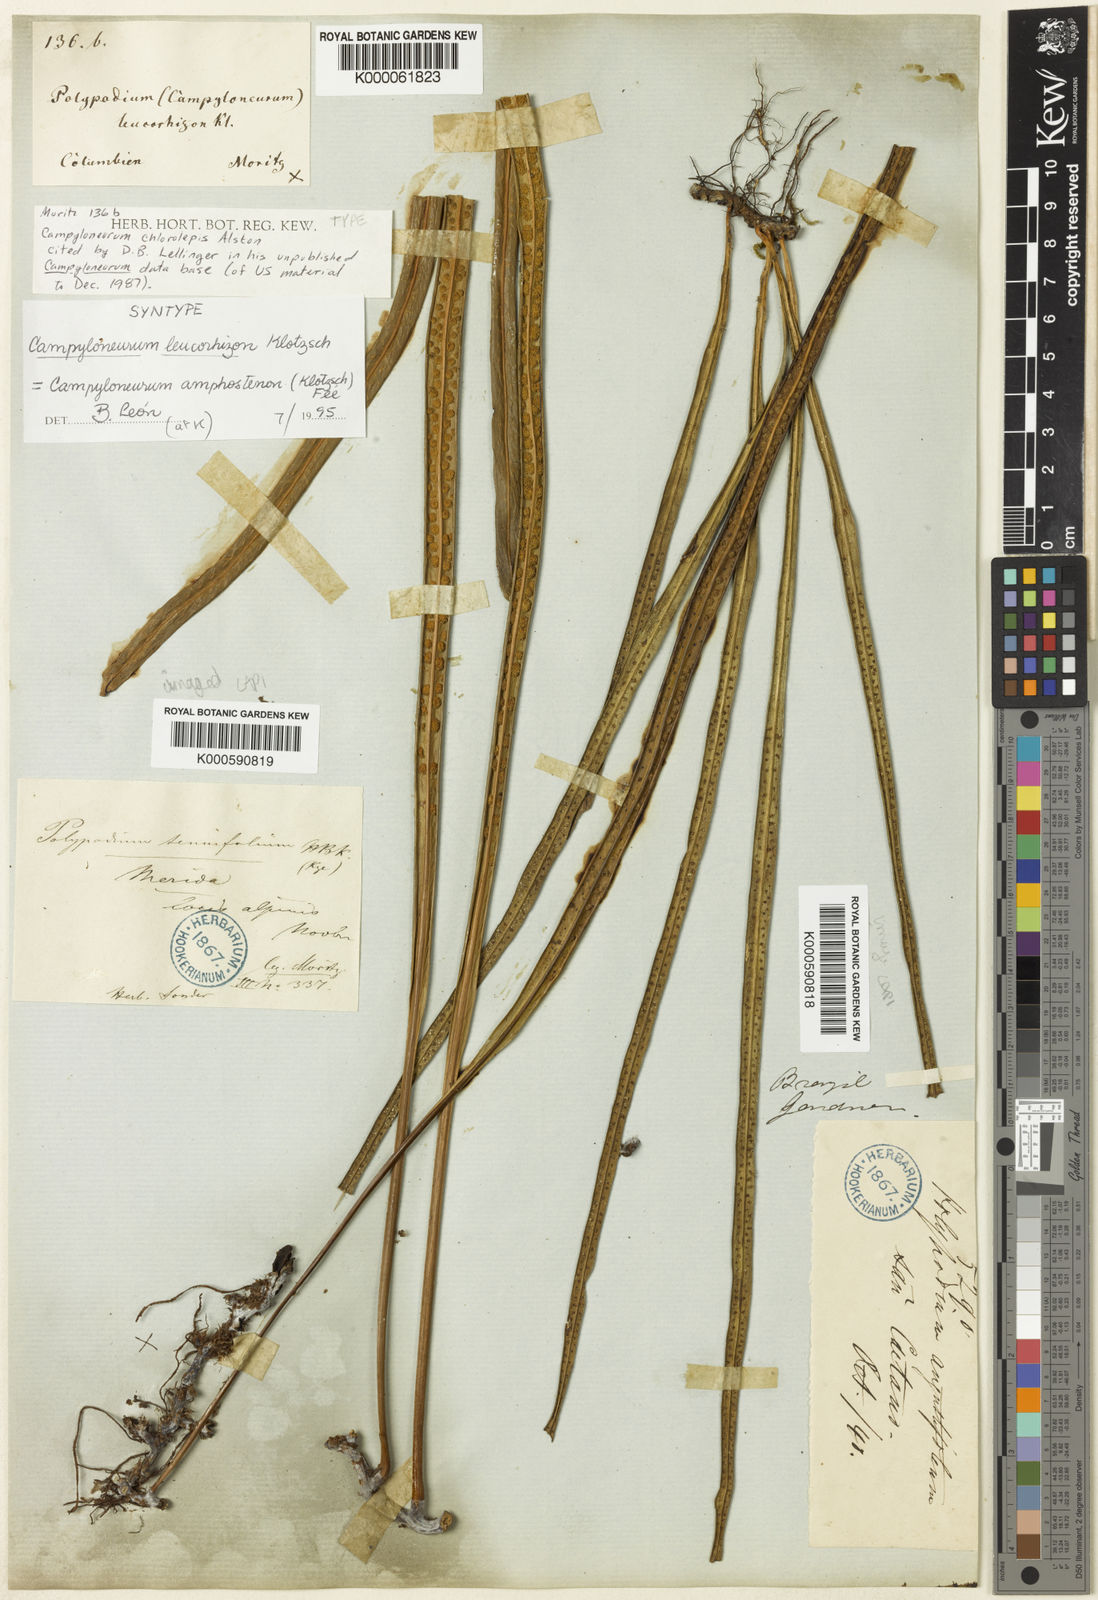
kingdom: Plantae
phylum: Tracheophyta
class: Polypodiopsida
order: Polypodiales
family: Polypodiaceae
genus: Campyloneurum
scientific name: Campyloneurum
